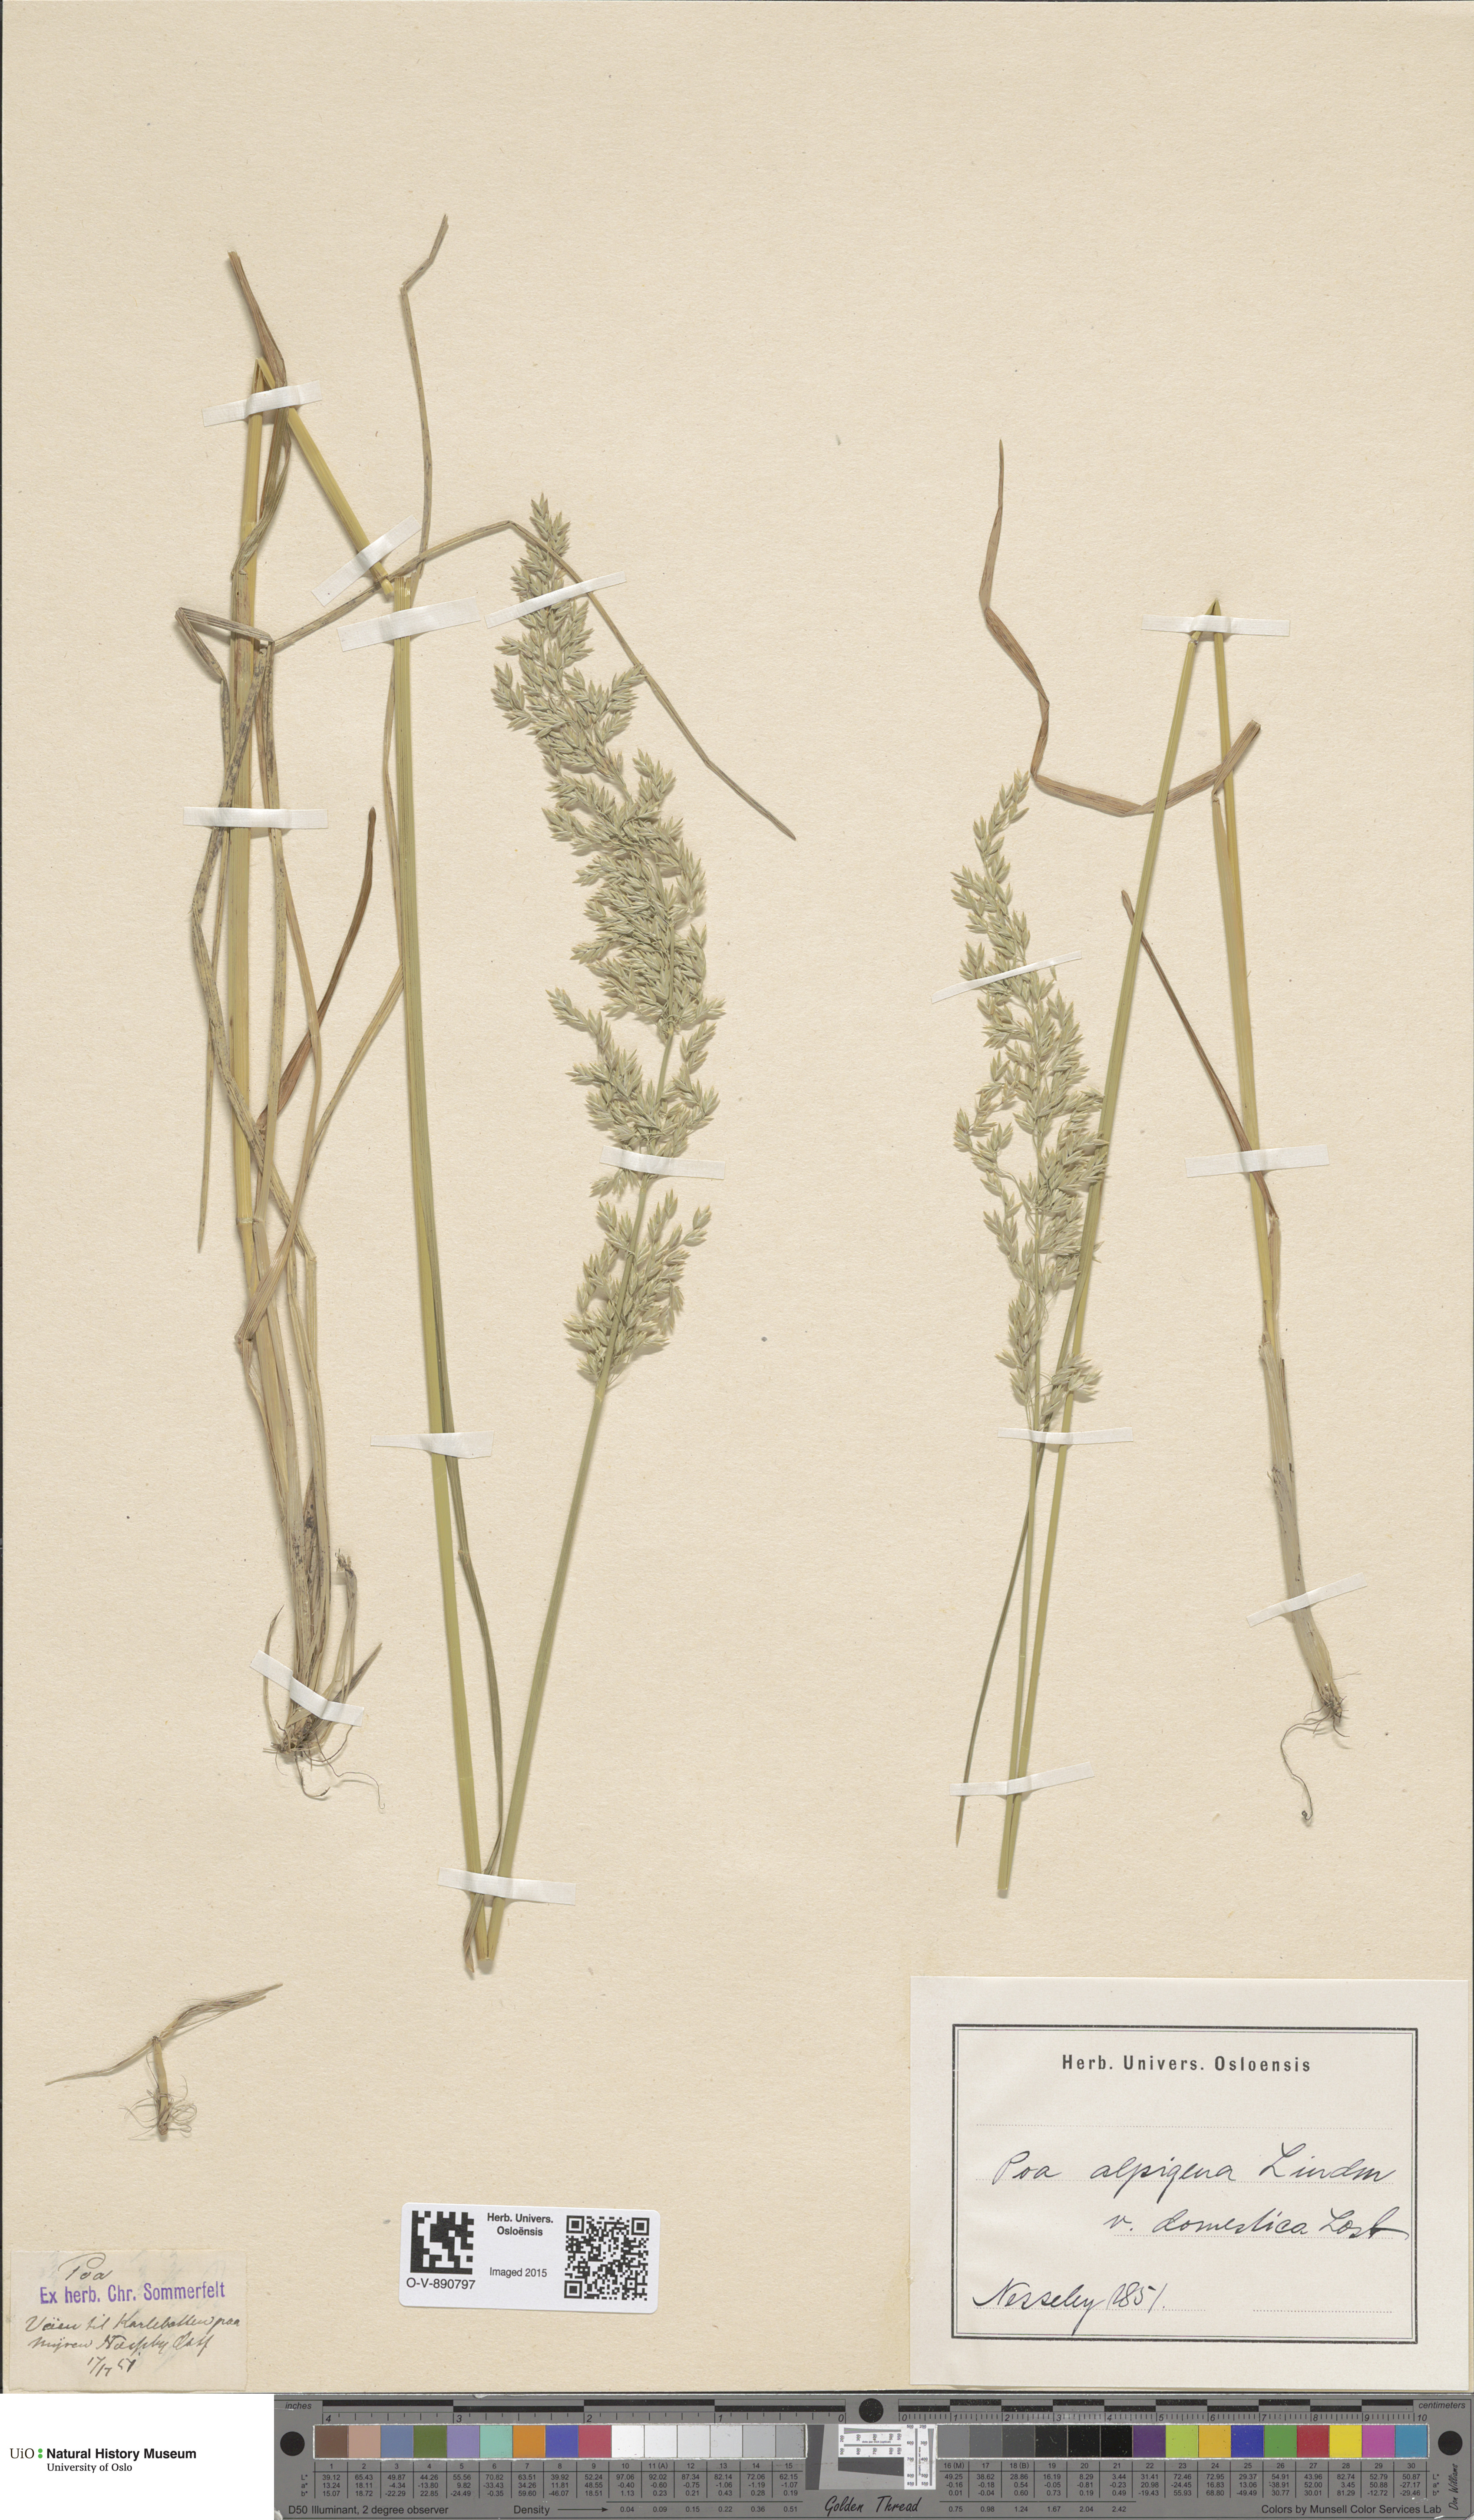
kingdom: Plantae
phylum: Tracheophyta
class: Liliopsida
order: Poales
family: Poaceae
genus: Poa
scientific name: Poa pratensis
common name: Kentucky bluegrass
